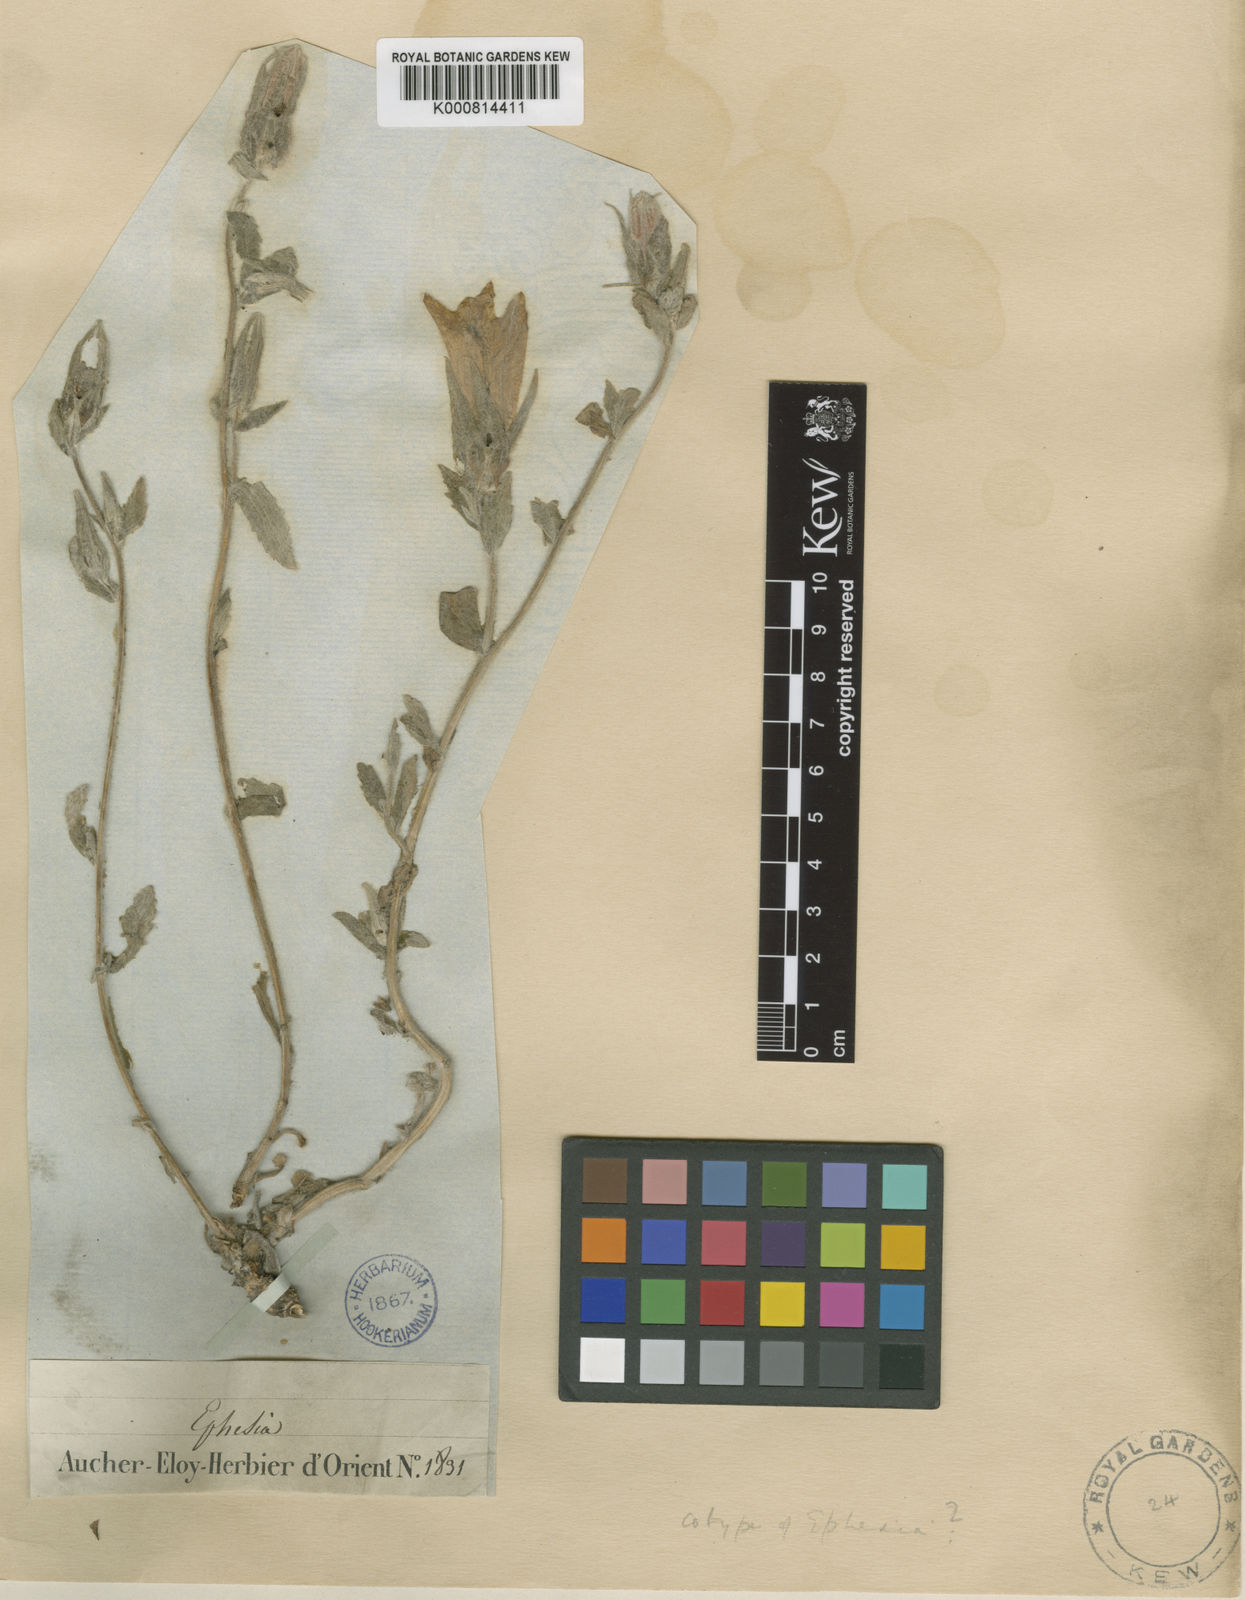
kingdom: Plantae
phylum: Tracheophyta
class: Magnoliopsida
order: Asterales
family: Campanulaceae
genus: Campanula
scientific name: Campanula tomentosa
